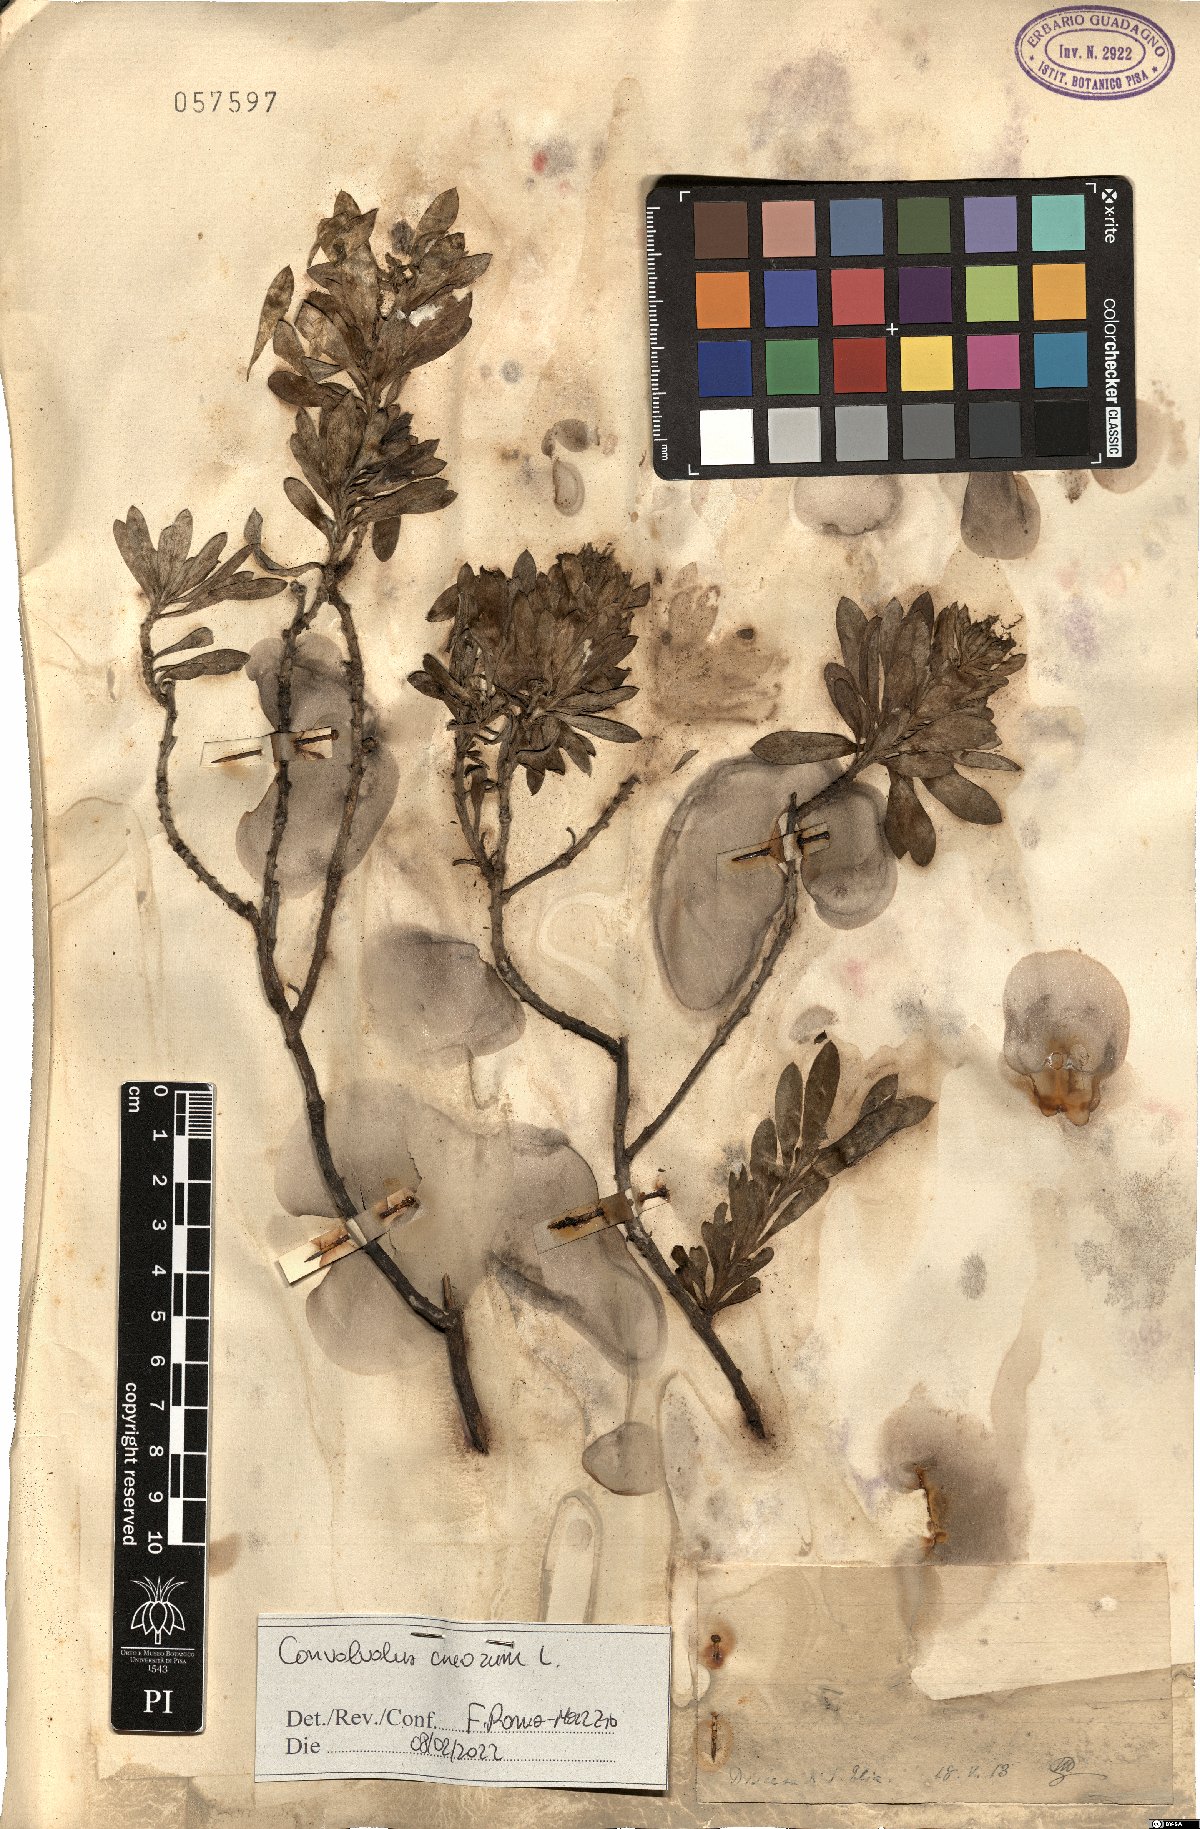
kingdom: Plantae
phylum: Tracheophyta
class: Magnoliopsida
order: Solanales
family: Convolvulaceae
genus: Convolvulus
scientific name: Convolvulus cneorum
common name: Silverbush
